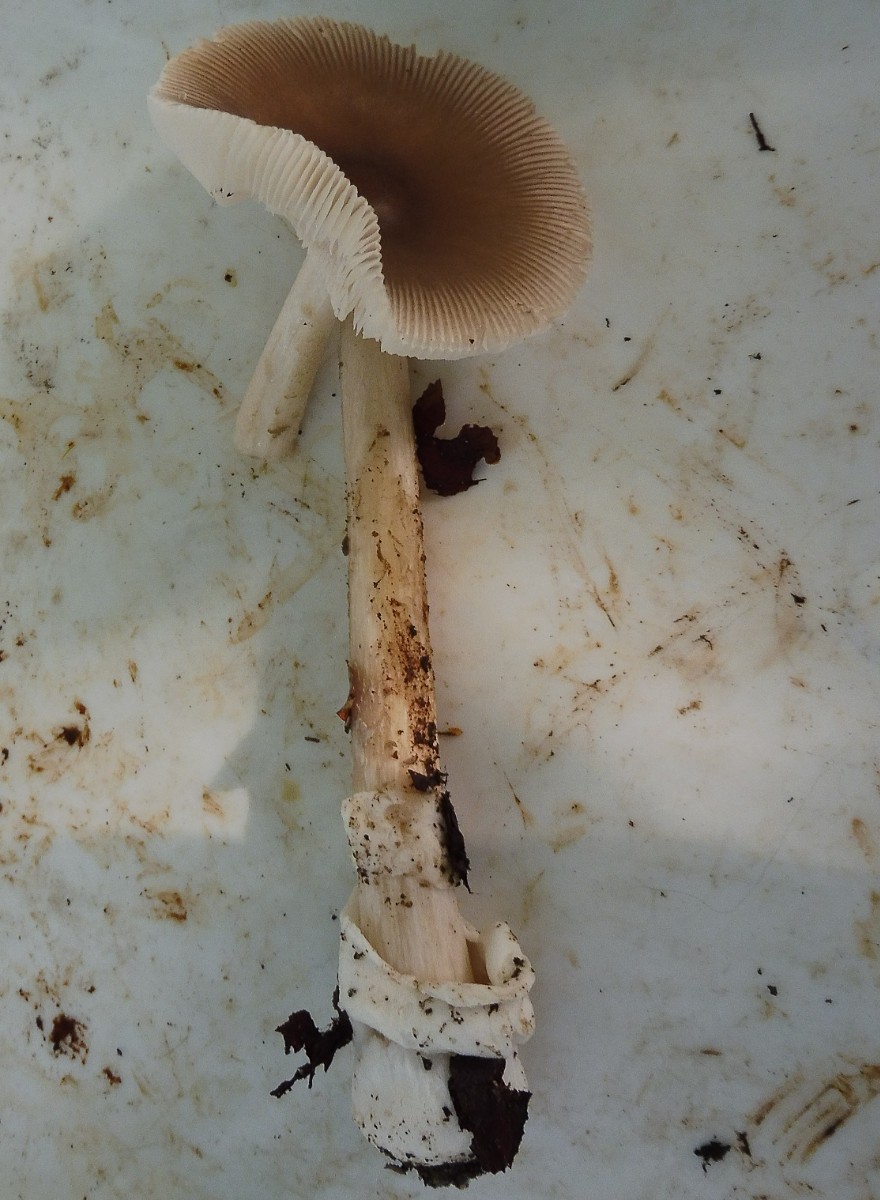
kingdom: Fungi
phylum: Basidiomycota
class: Agaricomycetes
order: Agaricales
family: Amanitaceae
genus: Amanita
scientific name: Amanita fulva
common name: brun kam-fluesvamp
